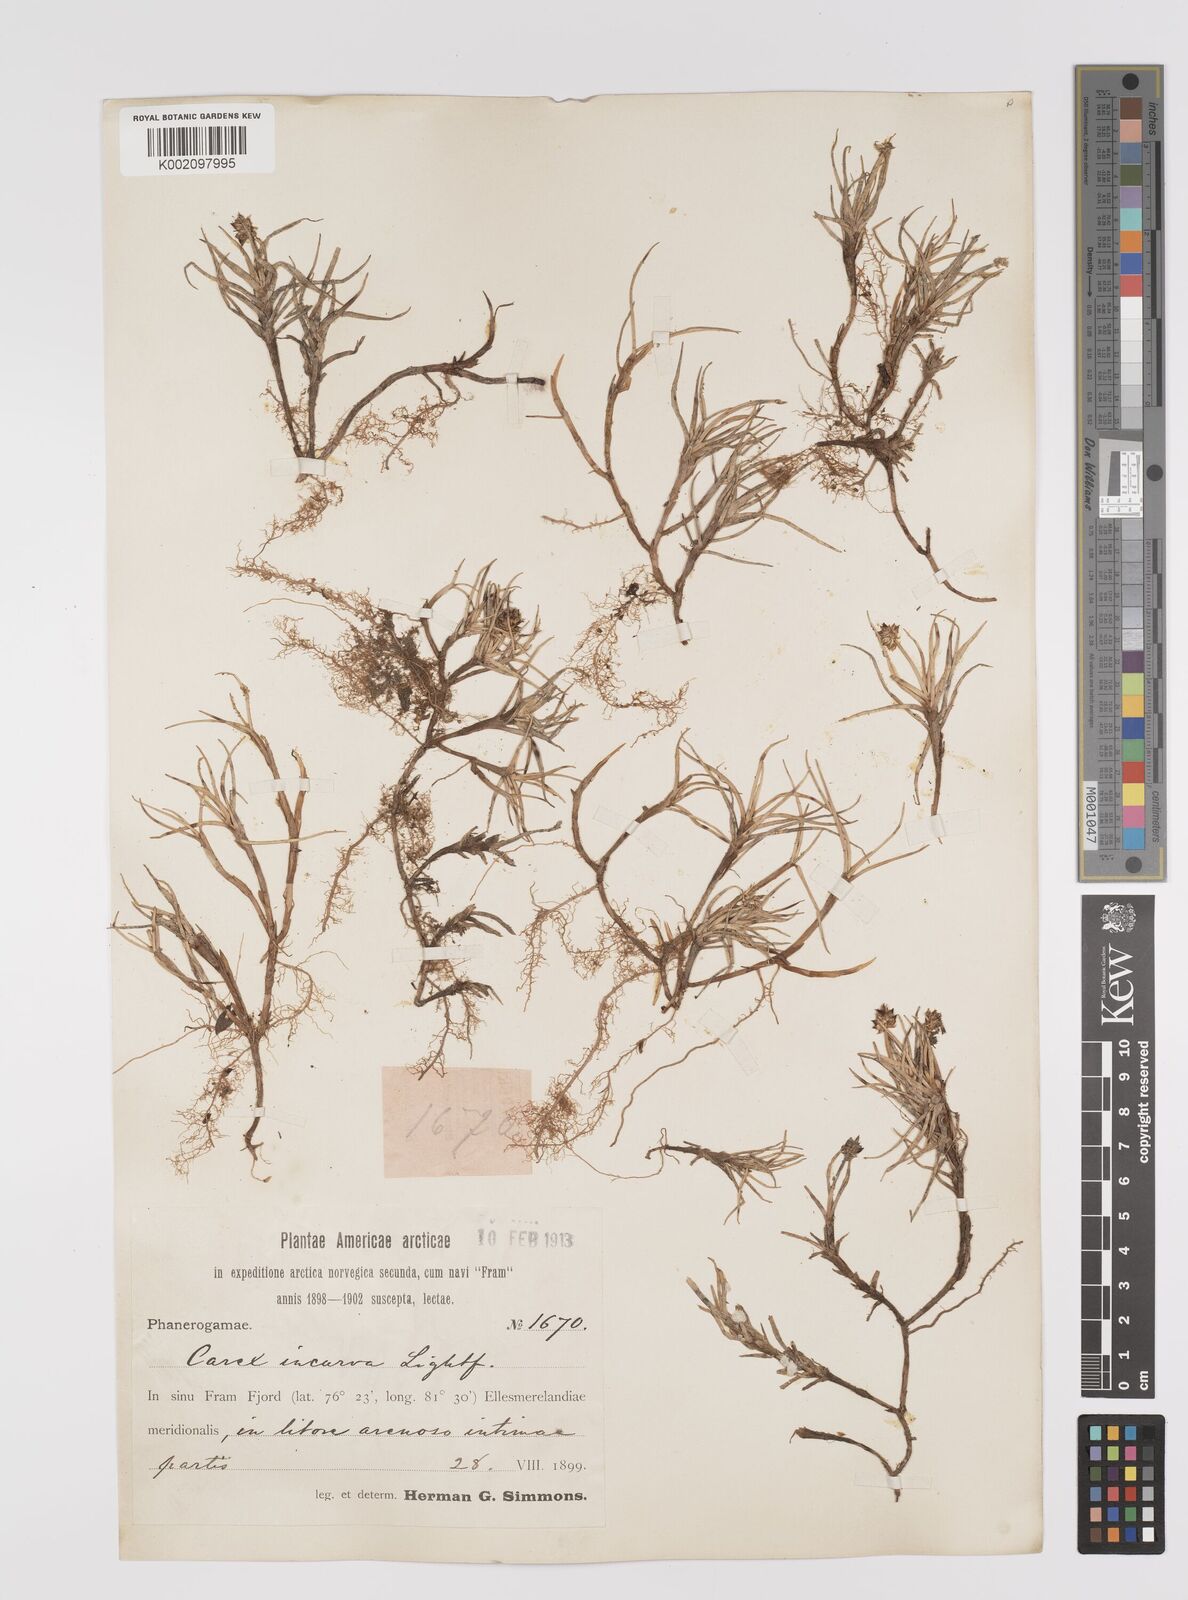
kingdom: Plantae
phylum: Tracheophyta
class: Liliopsida
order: Poales
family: Cyperaceae
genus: Carex
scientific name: Carex maritima
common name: Curved sedge
